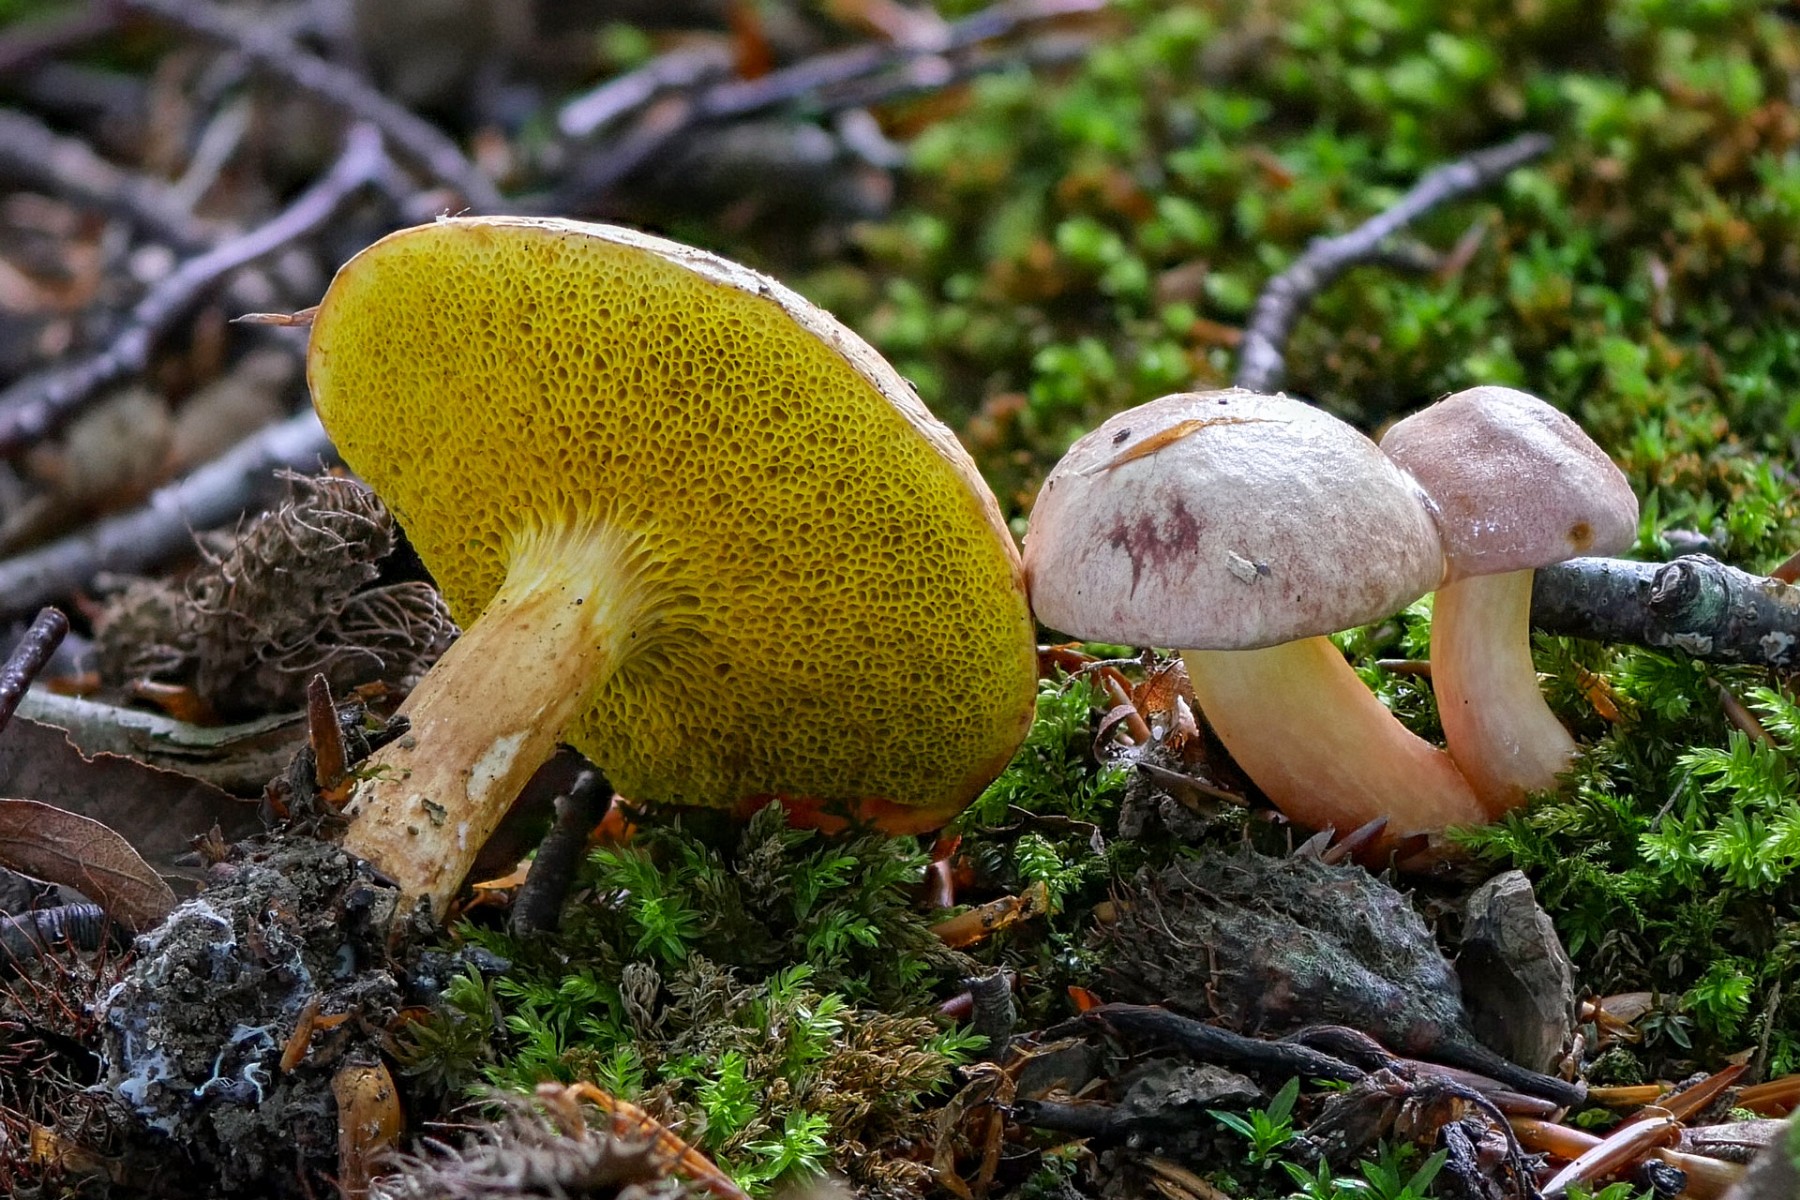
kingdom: Fungi
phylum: Basidiomycota
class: Agaricomycetes
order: Boletales
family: Boletaceae
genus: Aureoboletus
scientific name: Aureoboletus gentilis
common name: guldrørhat
